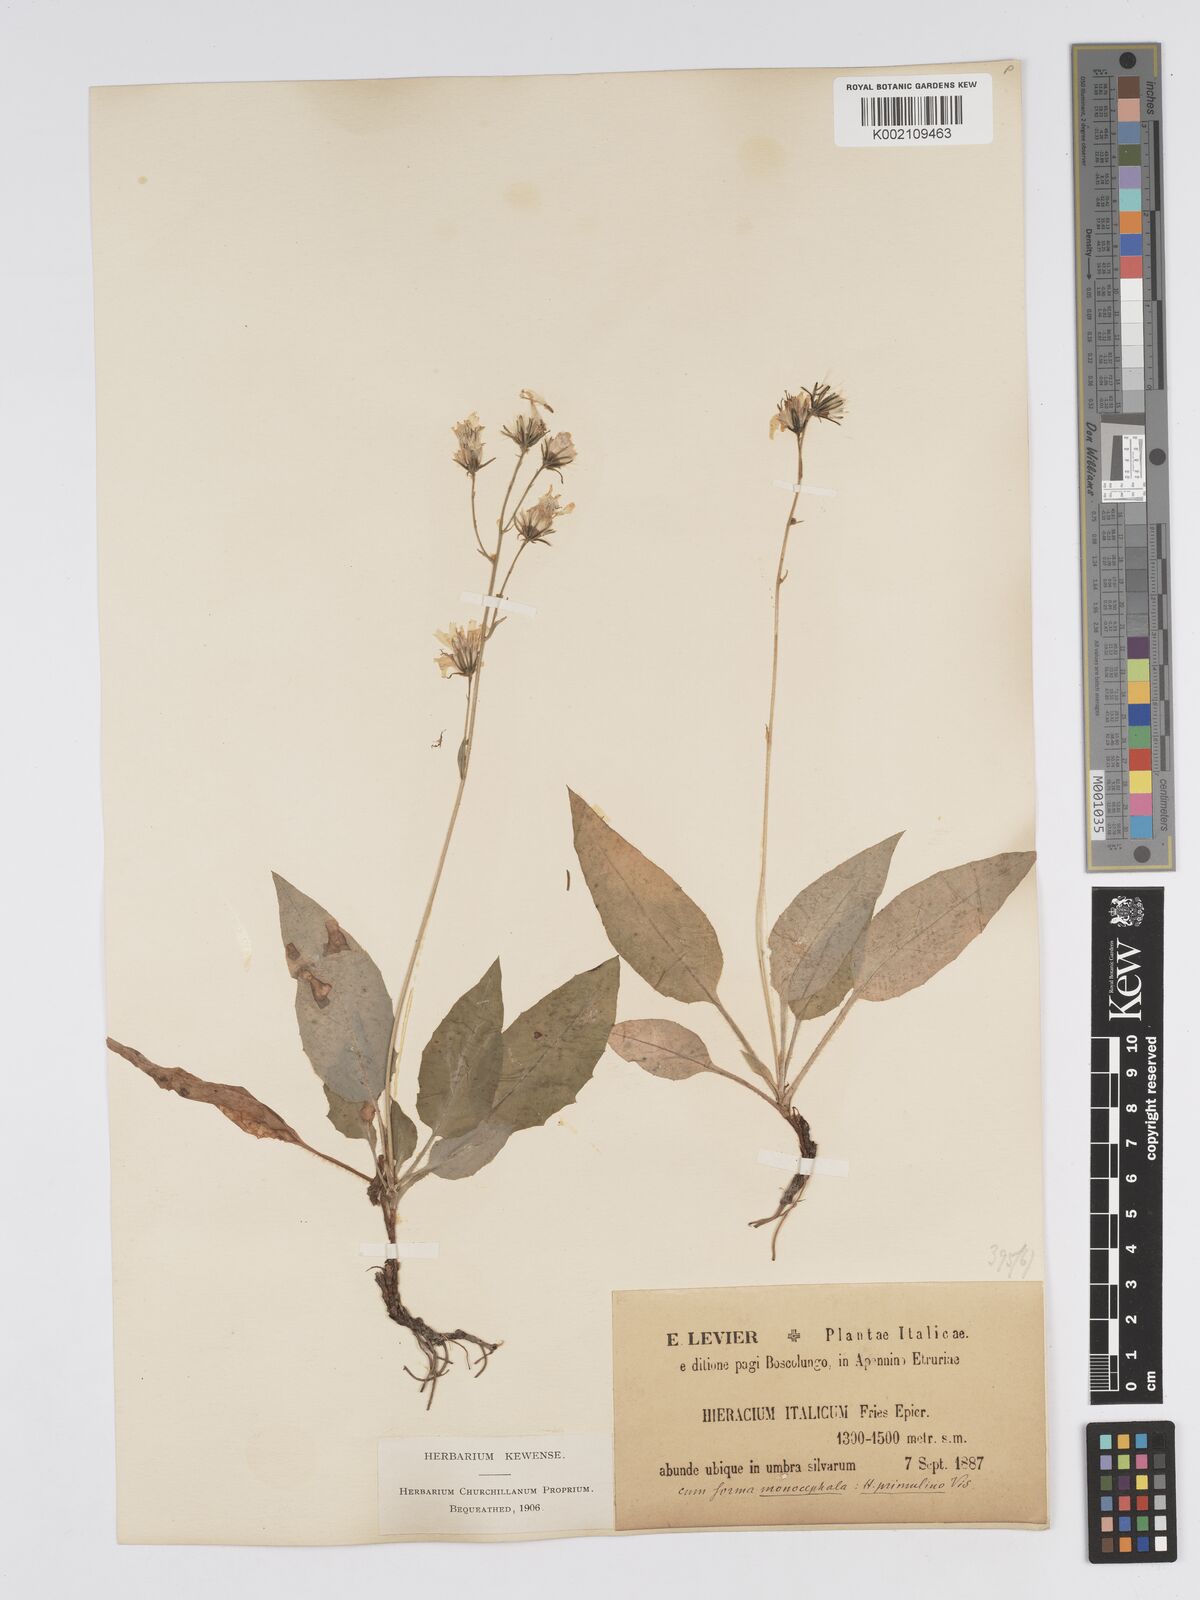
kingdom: Plantae
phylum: Tracheophyta
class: Magnoliopsida
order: Asterales
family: Asteraceae
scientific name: Asteraceae
